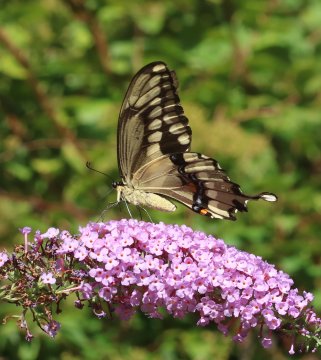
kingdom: Animalia
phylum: Arthropoda
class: Insecta
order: Lepidoptera
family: Papilionidae
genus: Papilio
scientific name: Papilio cresphontes
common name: Eastern Giant Swallowtail
